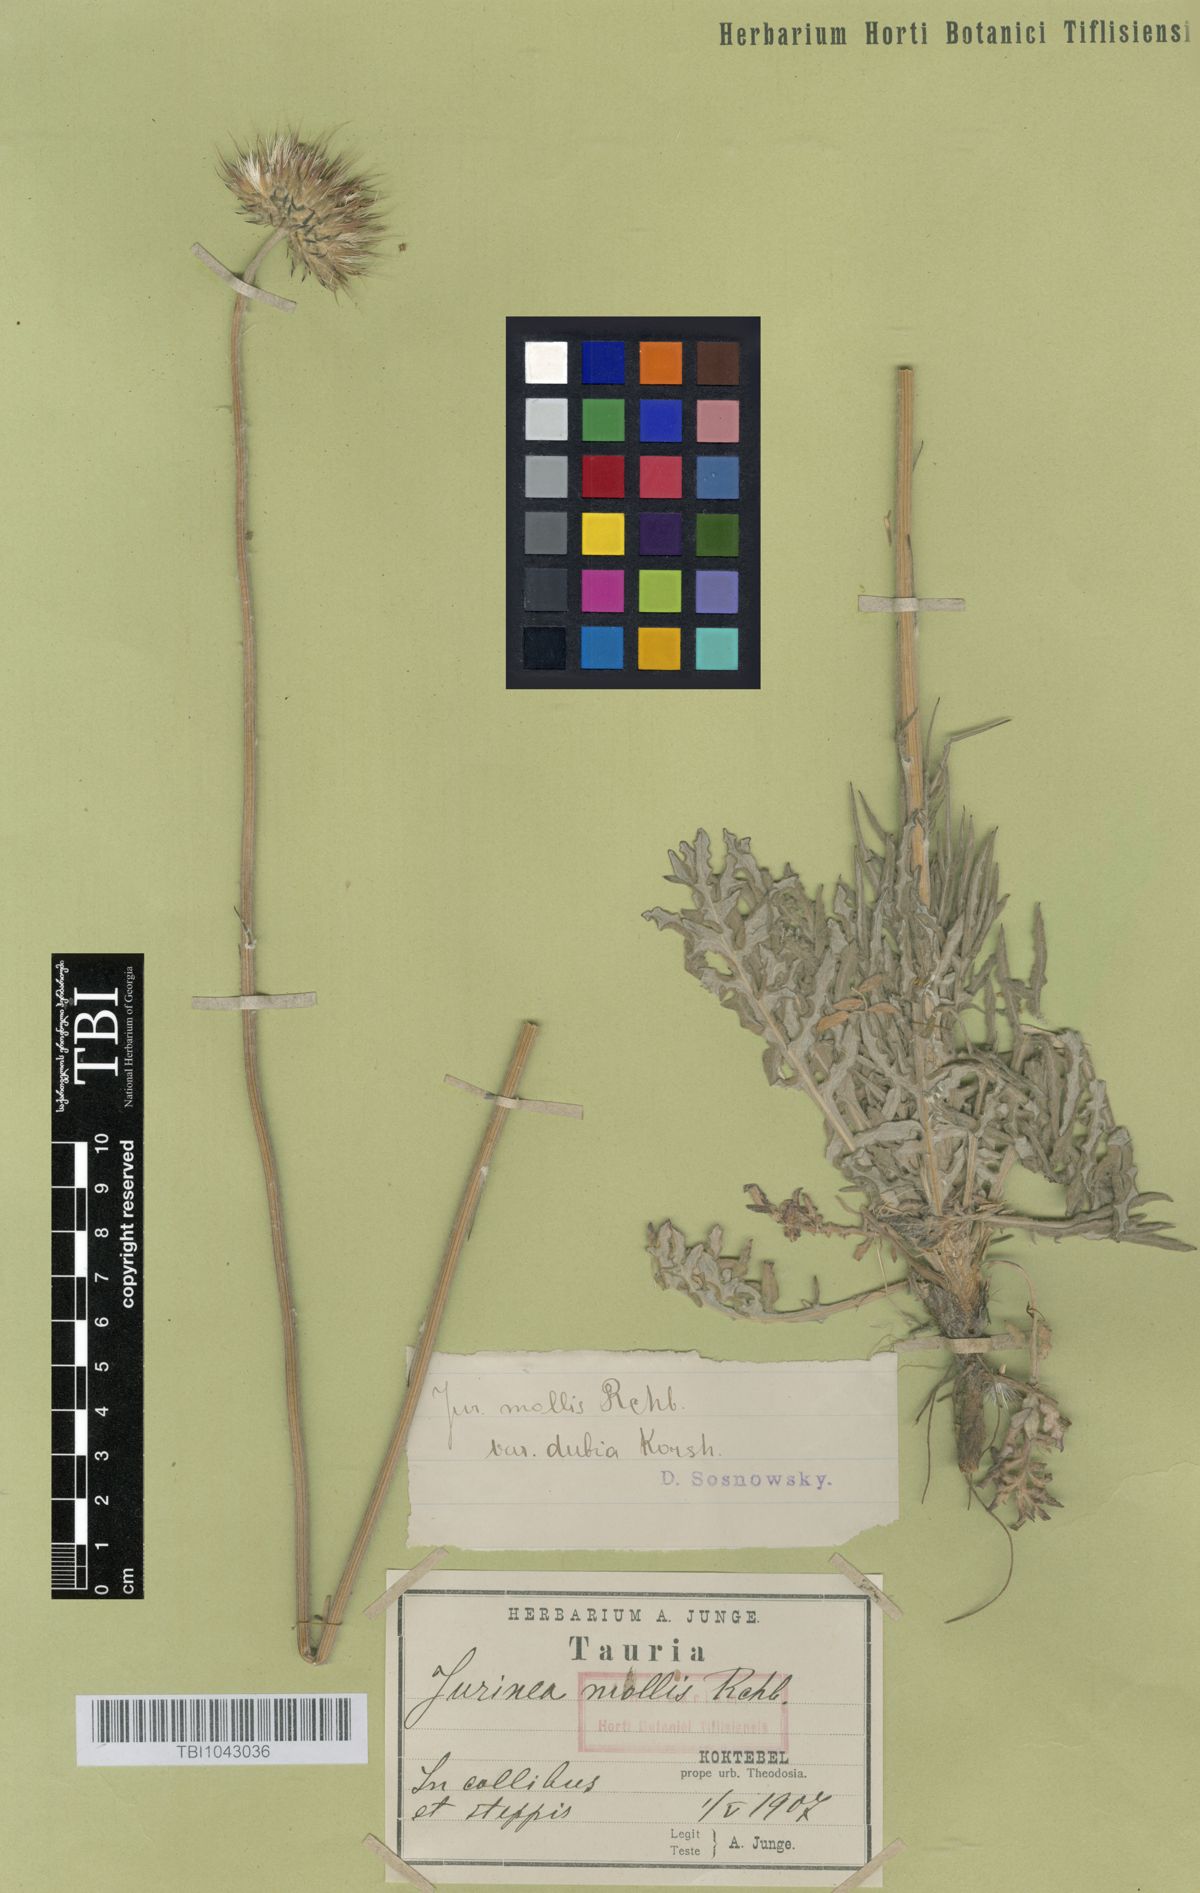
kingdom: Plantae
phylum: Tracheophyta
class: Magnoliopsida
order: Asterales
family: Asteraceae
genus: Jurinea
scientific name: Jurinea roegneri
